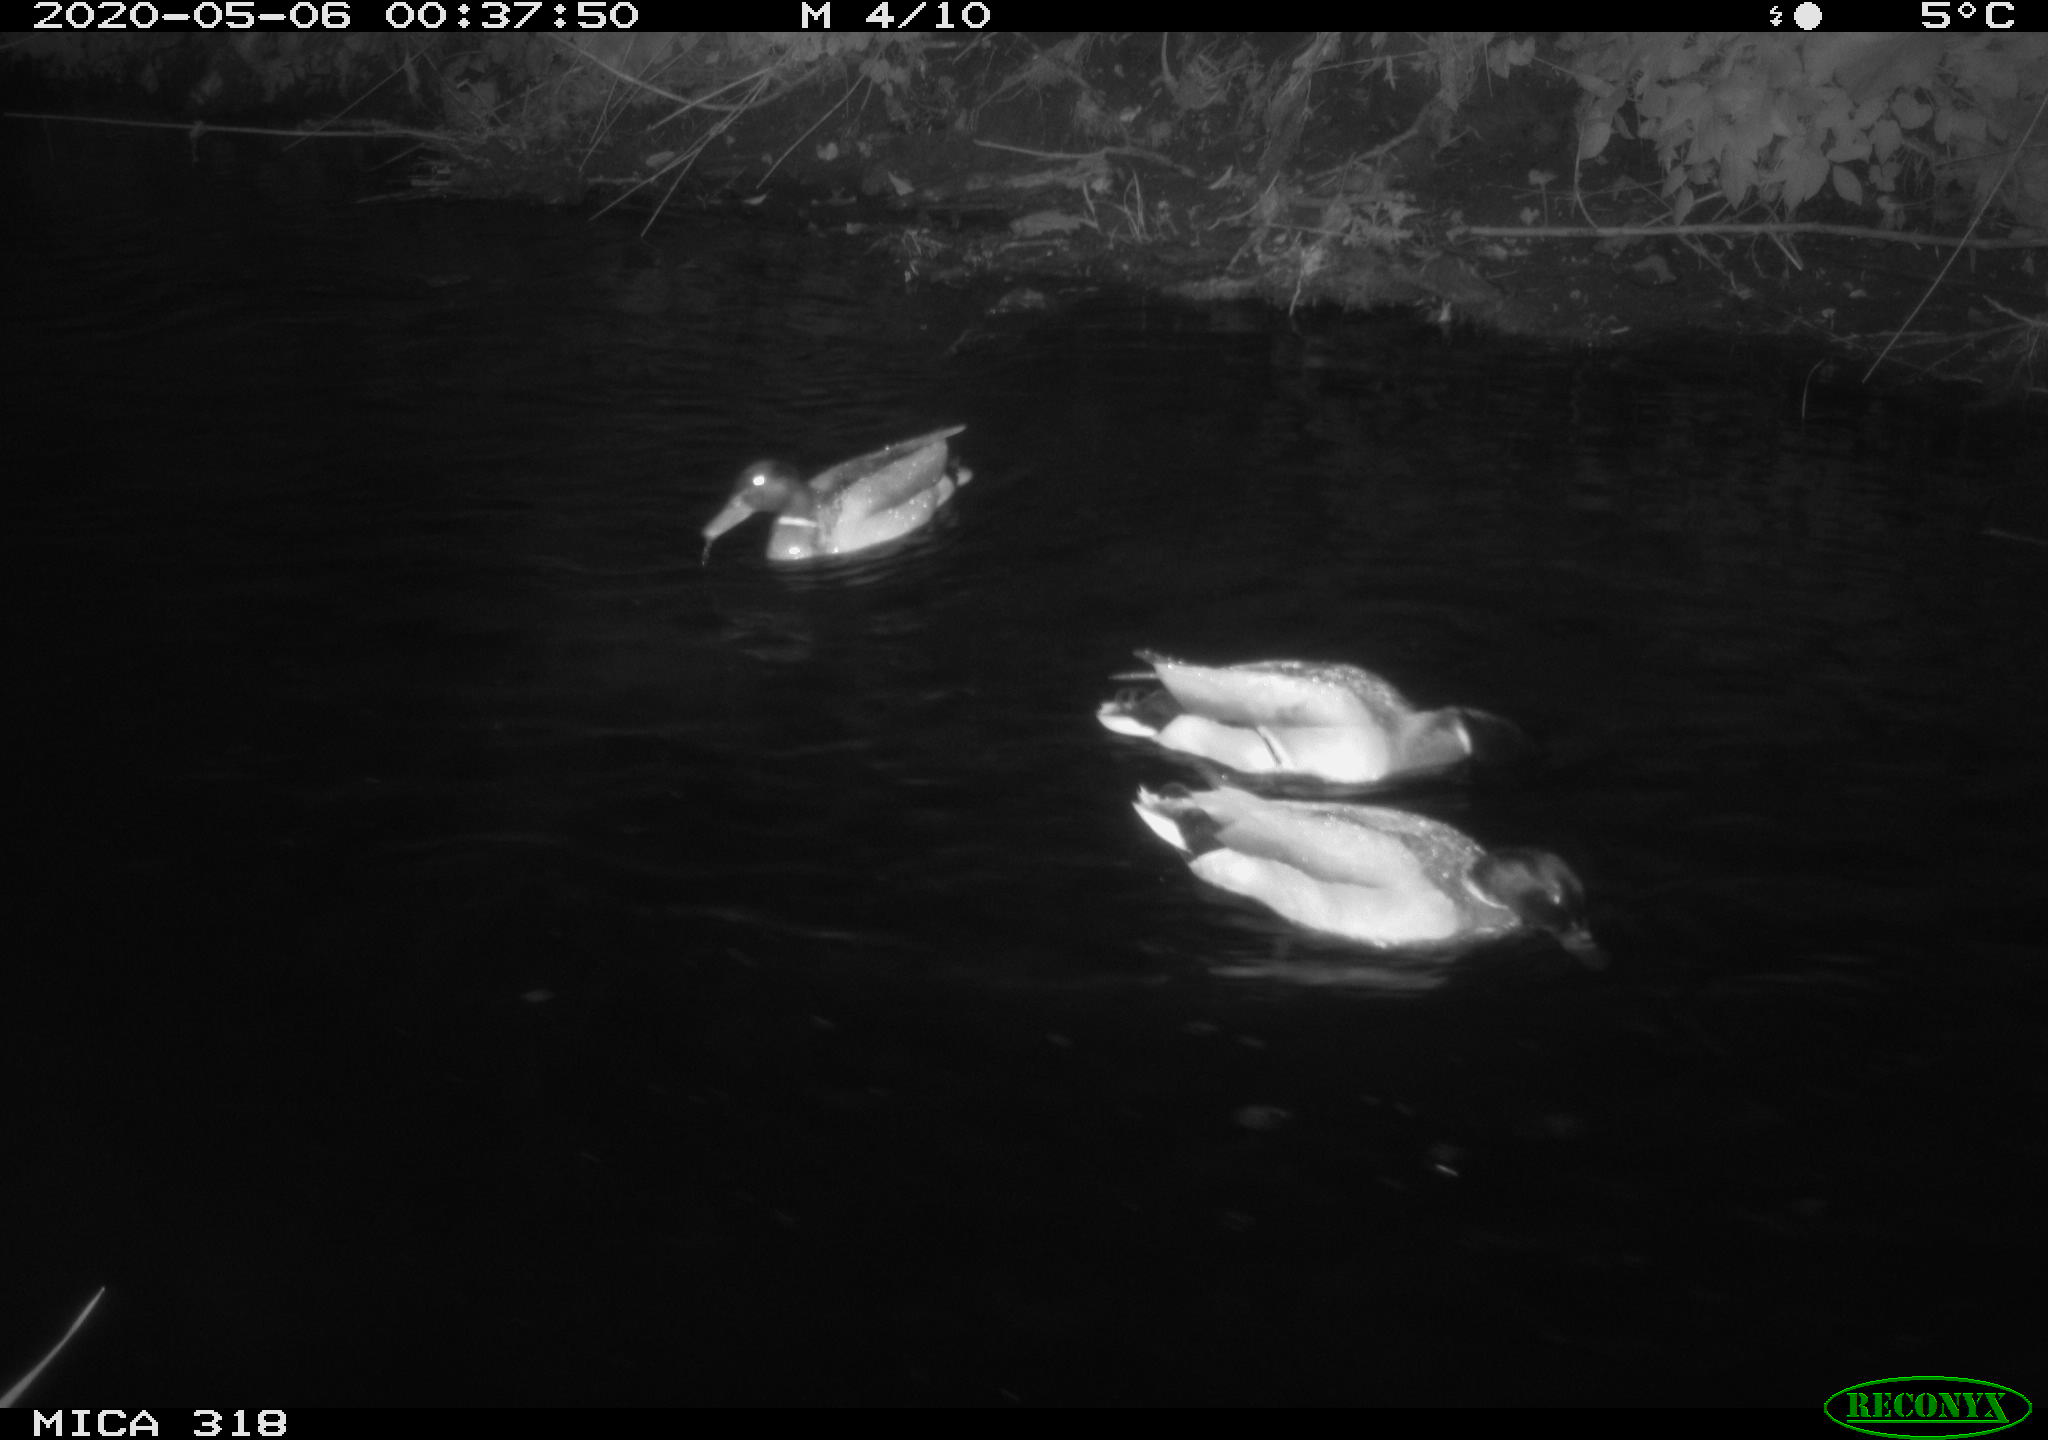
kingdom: Animalia
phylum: Chordata
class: Aves
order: Anseriformes
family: Anatidae
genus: Anas
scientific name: Anas platyrhynchos
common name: Mallard
